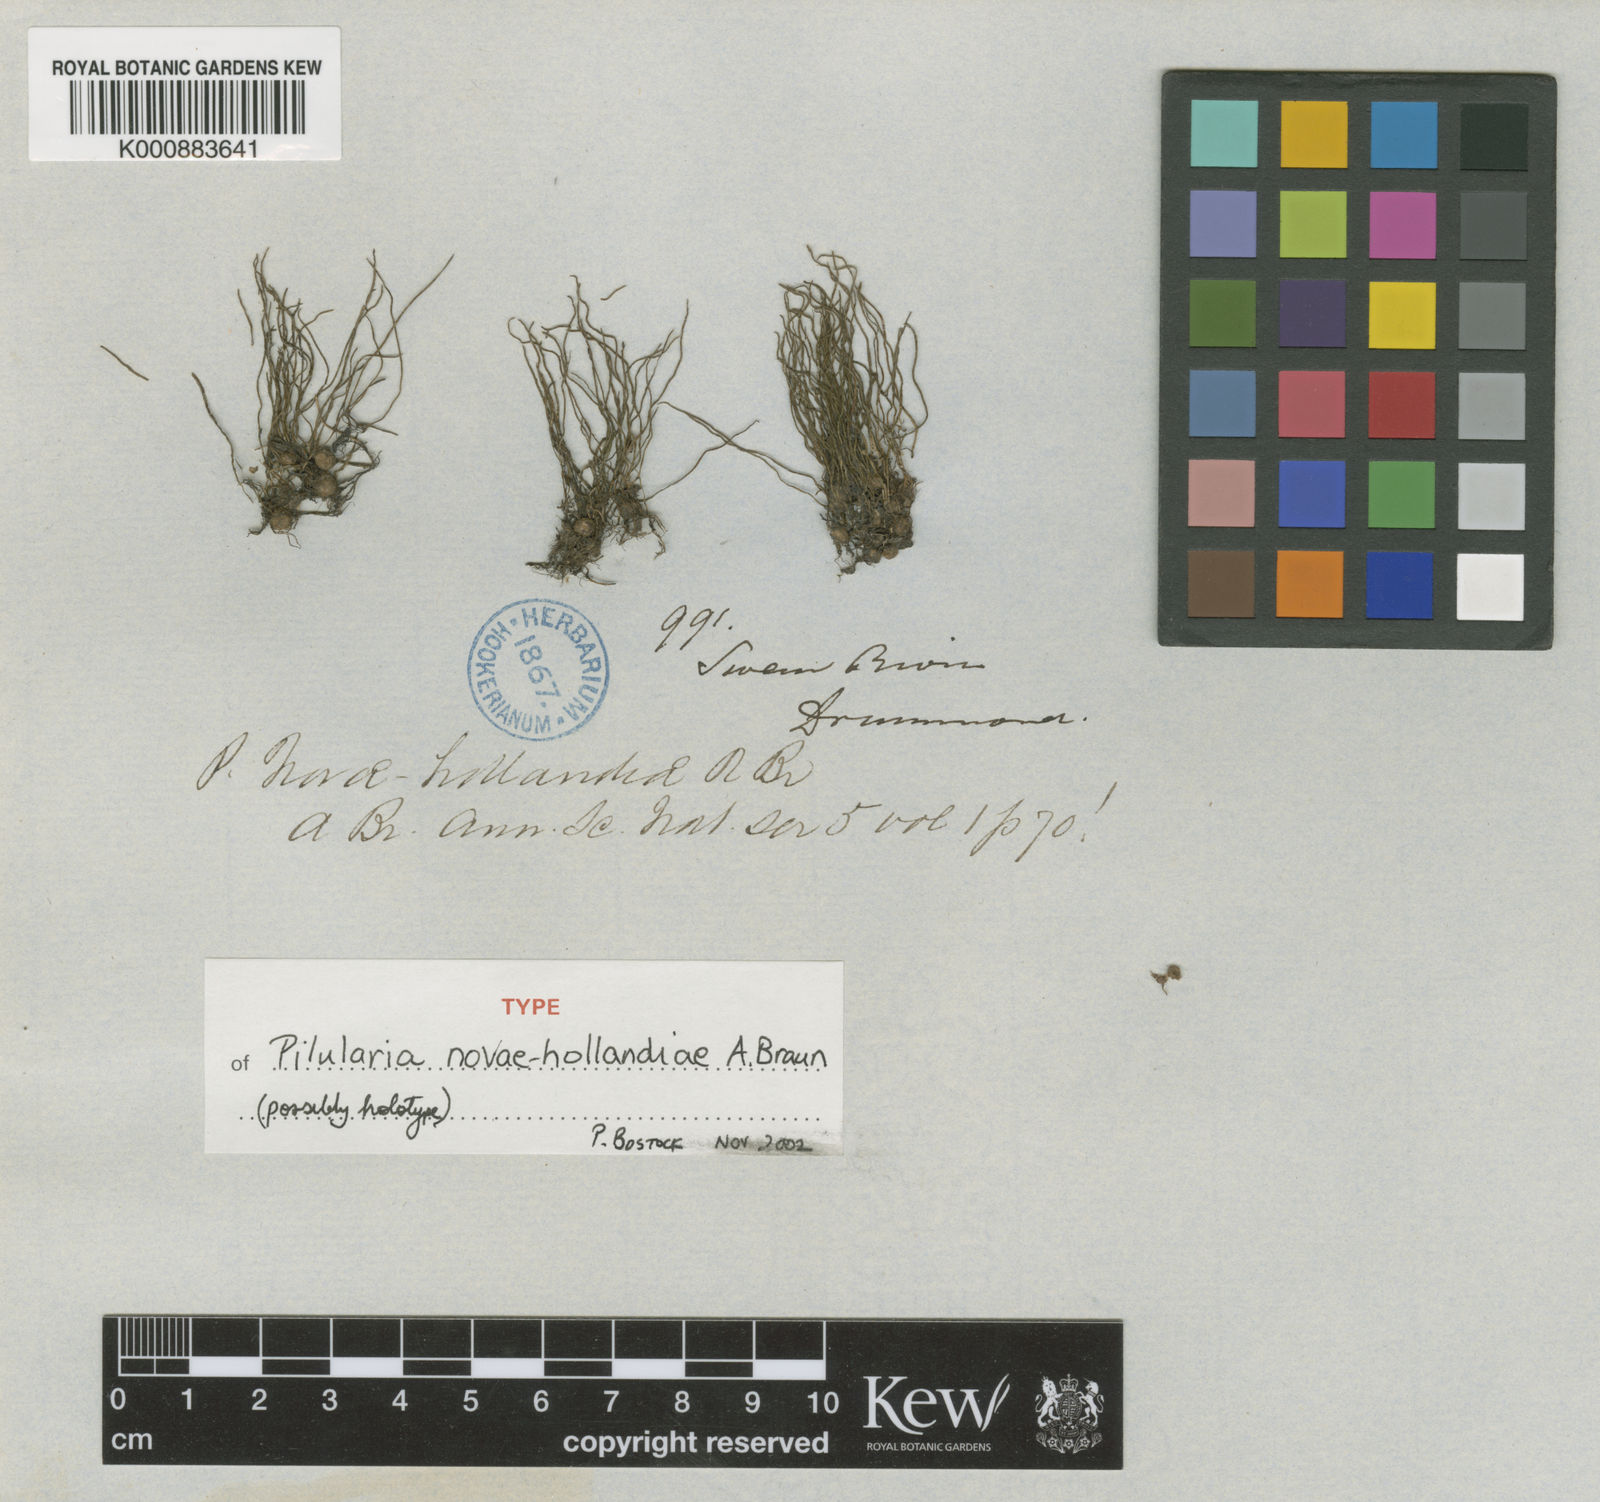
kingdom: Plantae
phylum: Tracheophyta
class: Polypodiopsida
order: Salviniales
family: Marsileaceae
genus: Pilularia
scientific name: Pilularia novae-hollandiae
